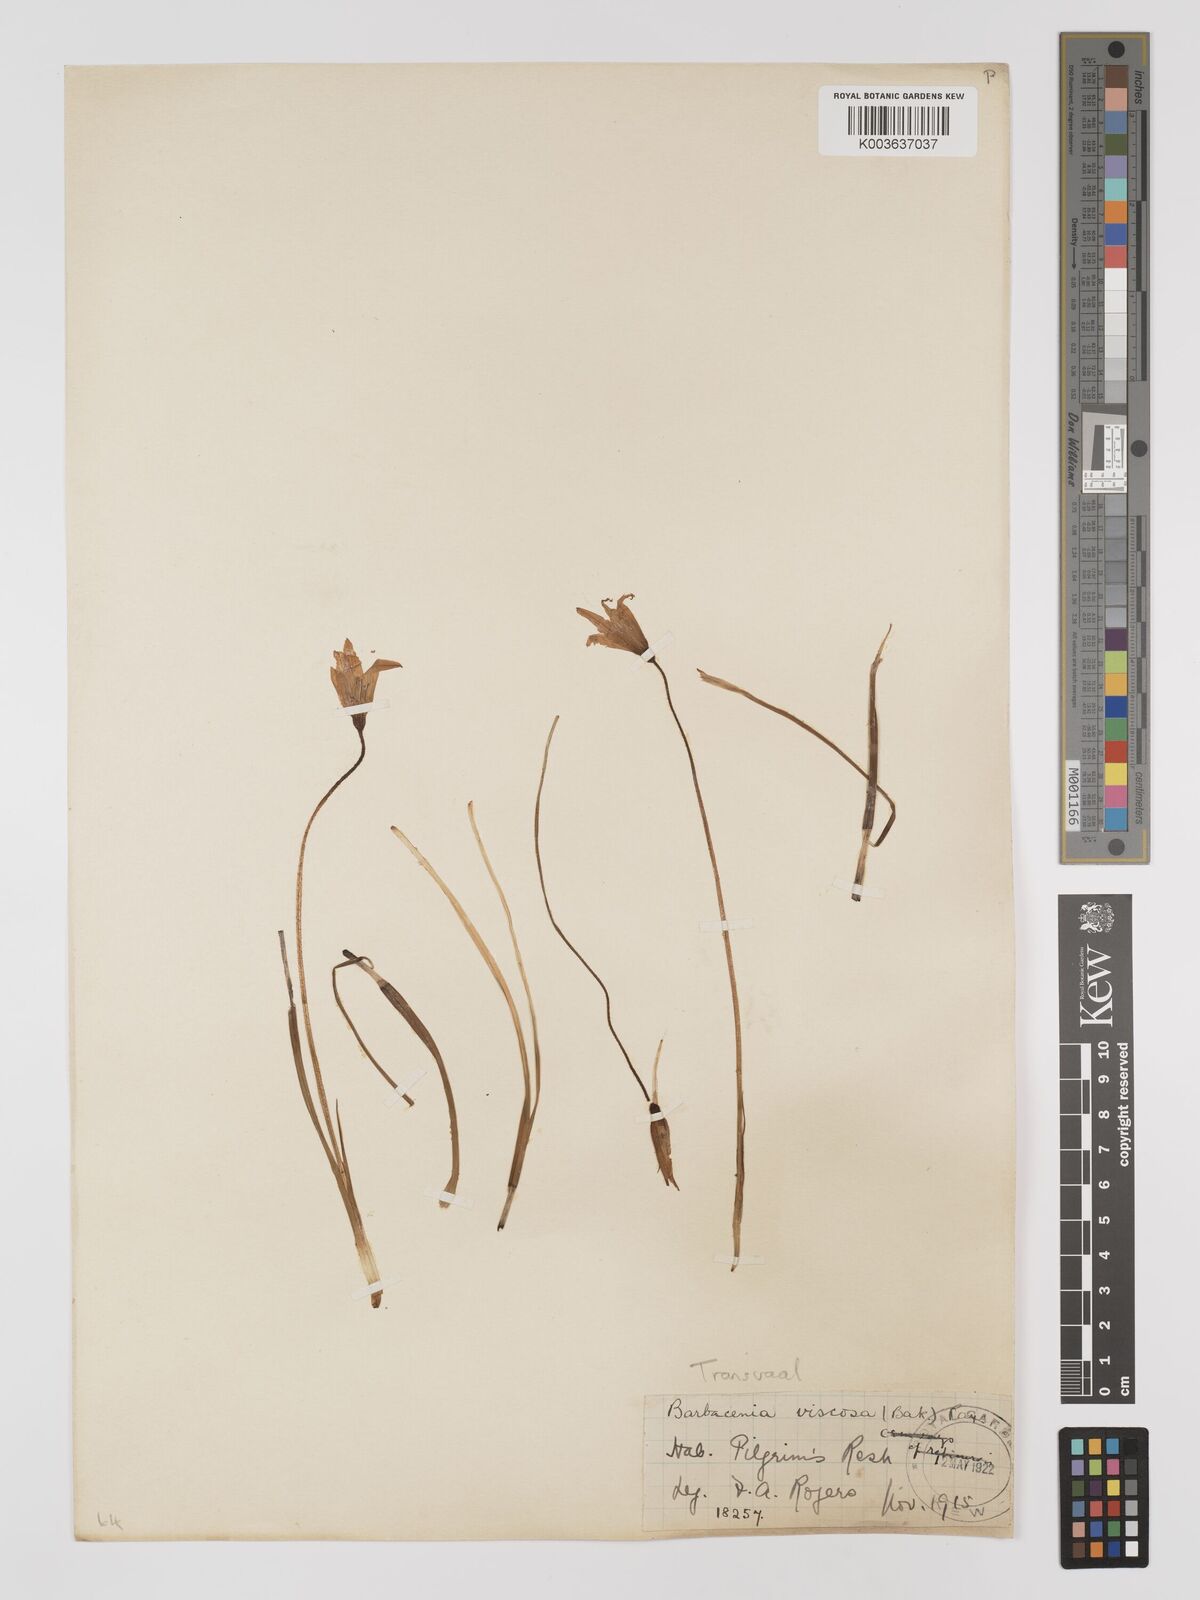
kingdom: Plantae
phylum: Tracheophyta
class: Liliopsida
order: Pandanales
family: Velloziaceae
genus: Xerophyta
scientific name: Xerophyta viscosa
